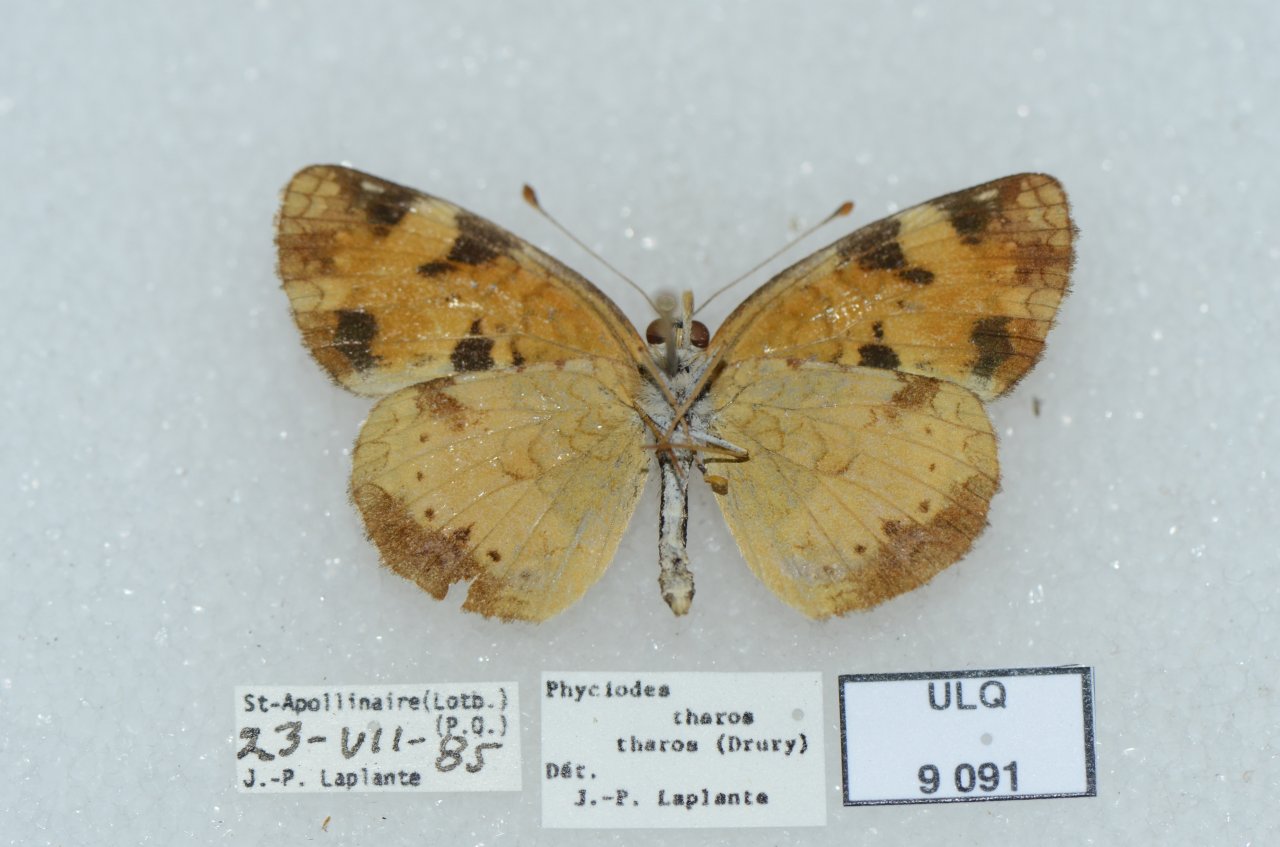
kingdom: Animalia
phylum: Arthropoda
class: Insecta
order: Lepidoptera
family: Nymphalidae
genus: Phyciodes
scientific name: Phyciodes tharos
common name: Northern Crescent
